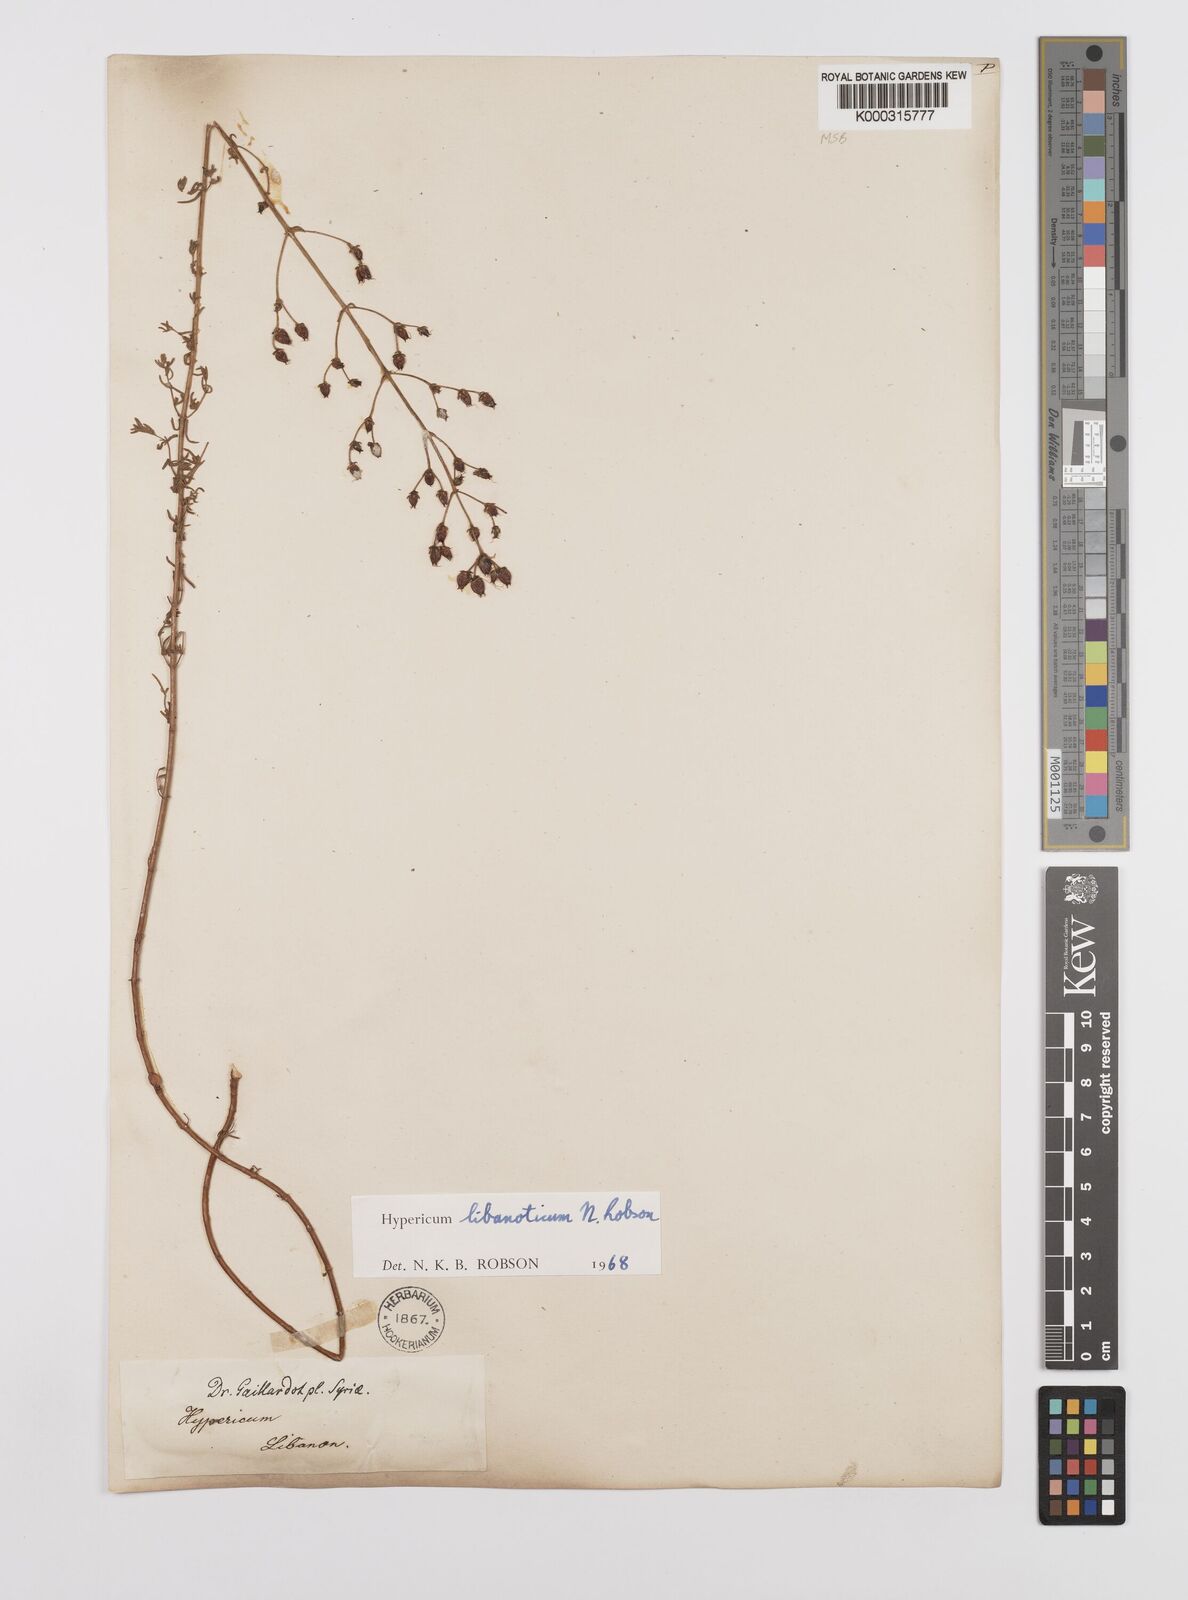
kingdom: Plantae
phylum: Tracheophyta
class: Magnoliopsida
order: Malpighiales
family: Hypericaceae
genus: Hypericum
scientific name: Hypericum libanoticum
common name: Lebanon saint john’s wort
